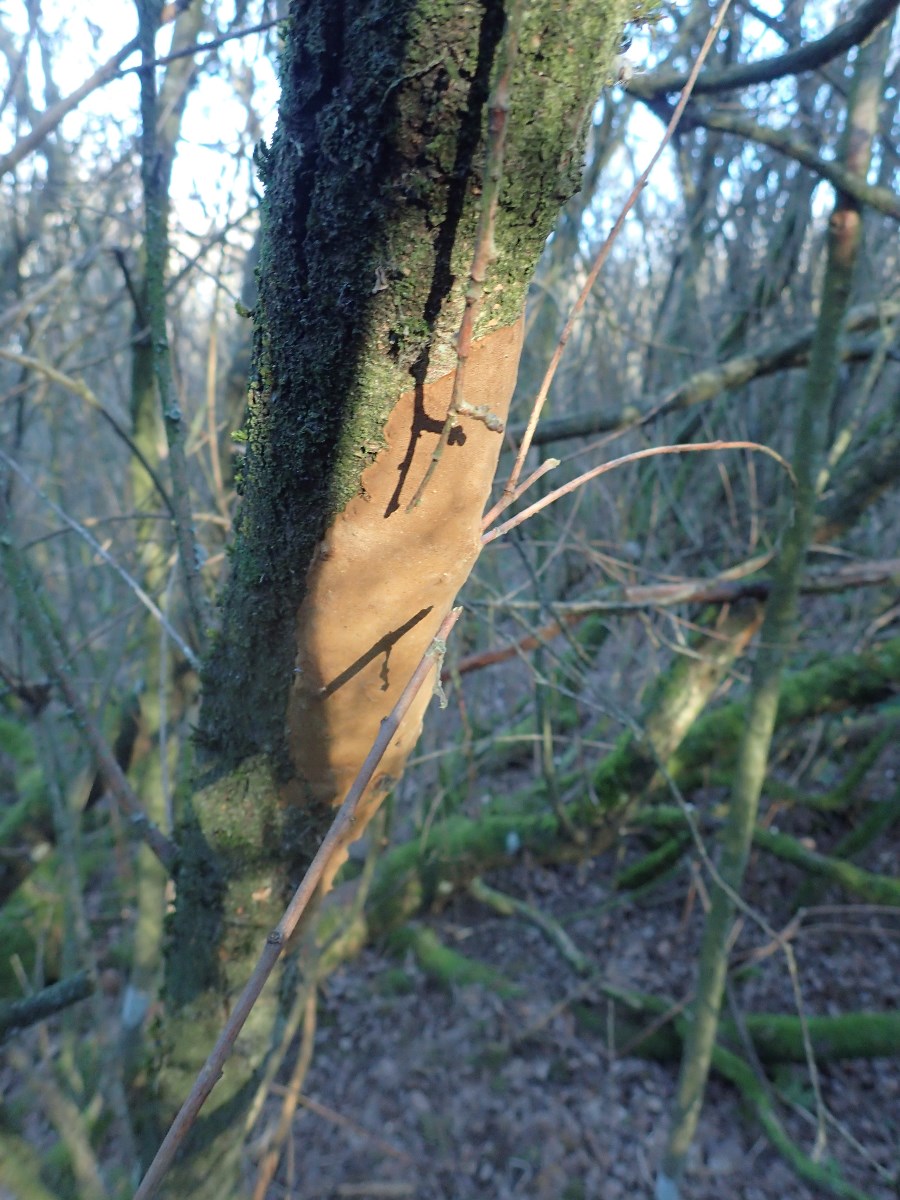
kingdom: Fungi
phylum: Basidiomycota
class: Agaricomycetes
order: Hymenochaetales
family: Hymenochaetaceae
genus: Fomitiporia
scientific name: Fomitiporia punctata
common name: pude-ildporesvamp
